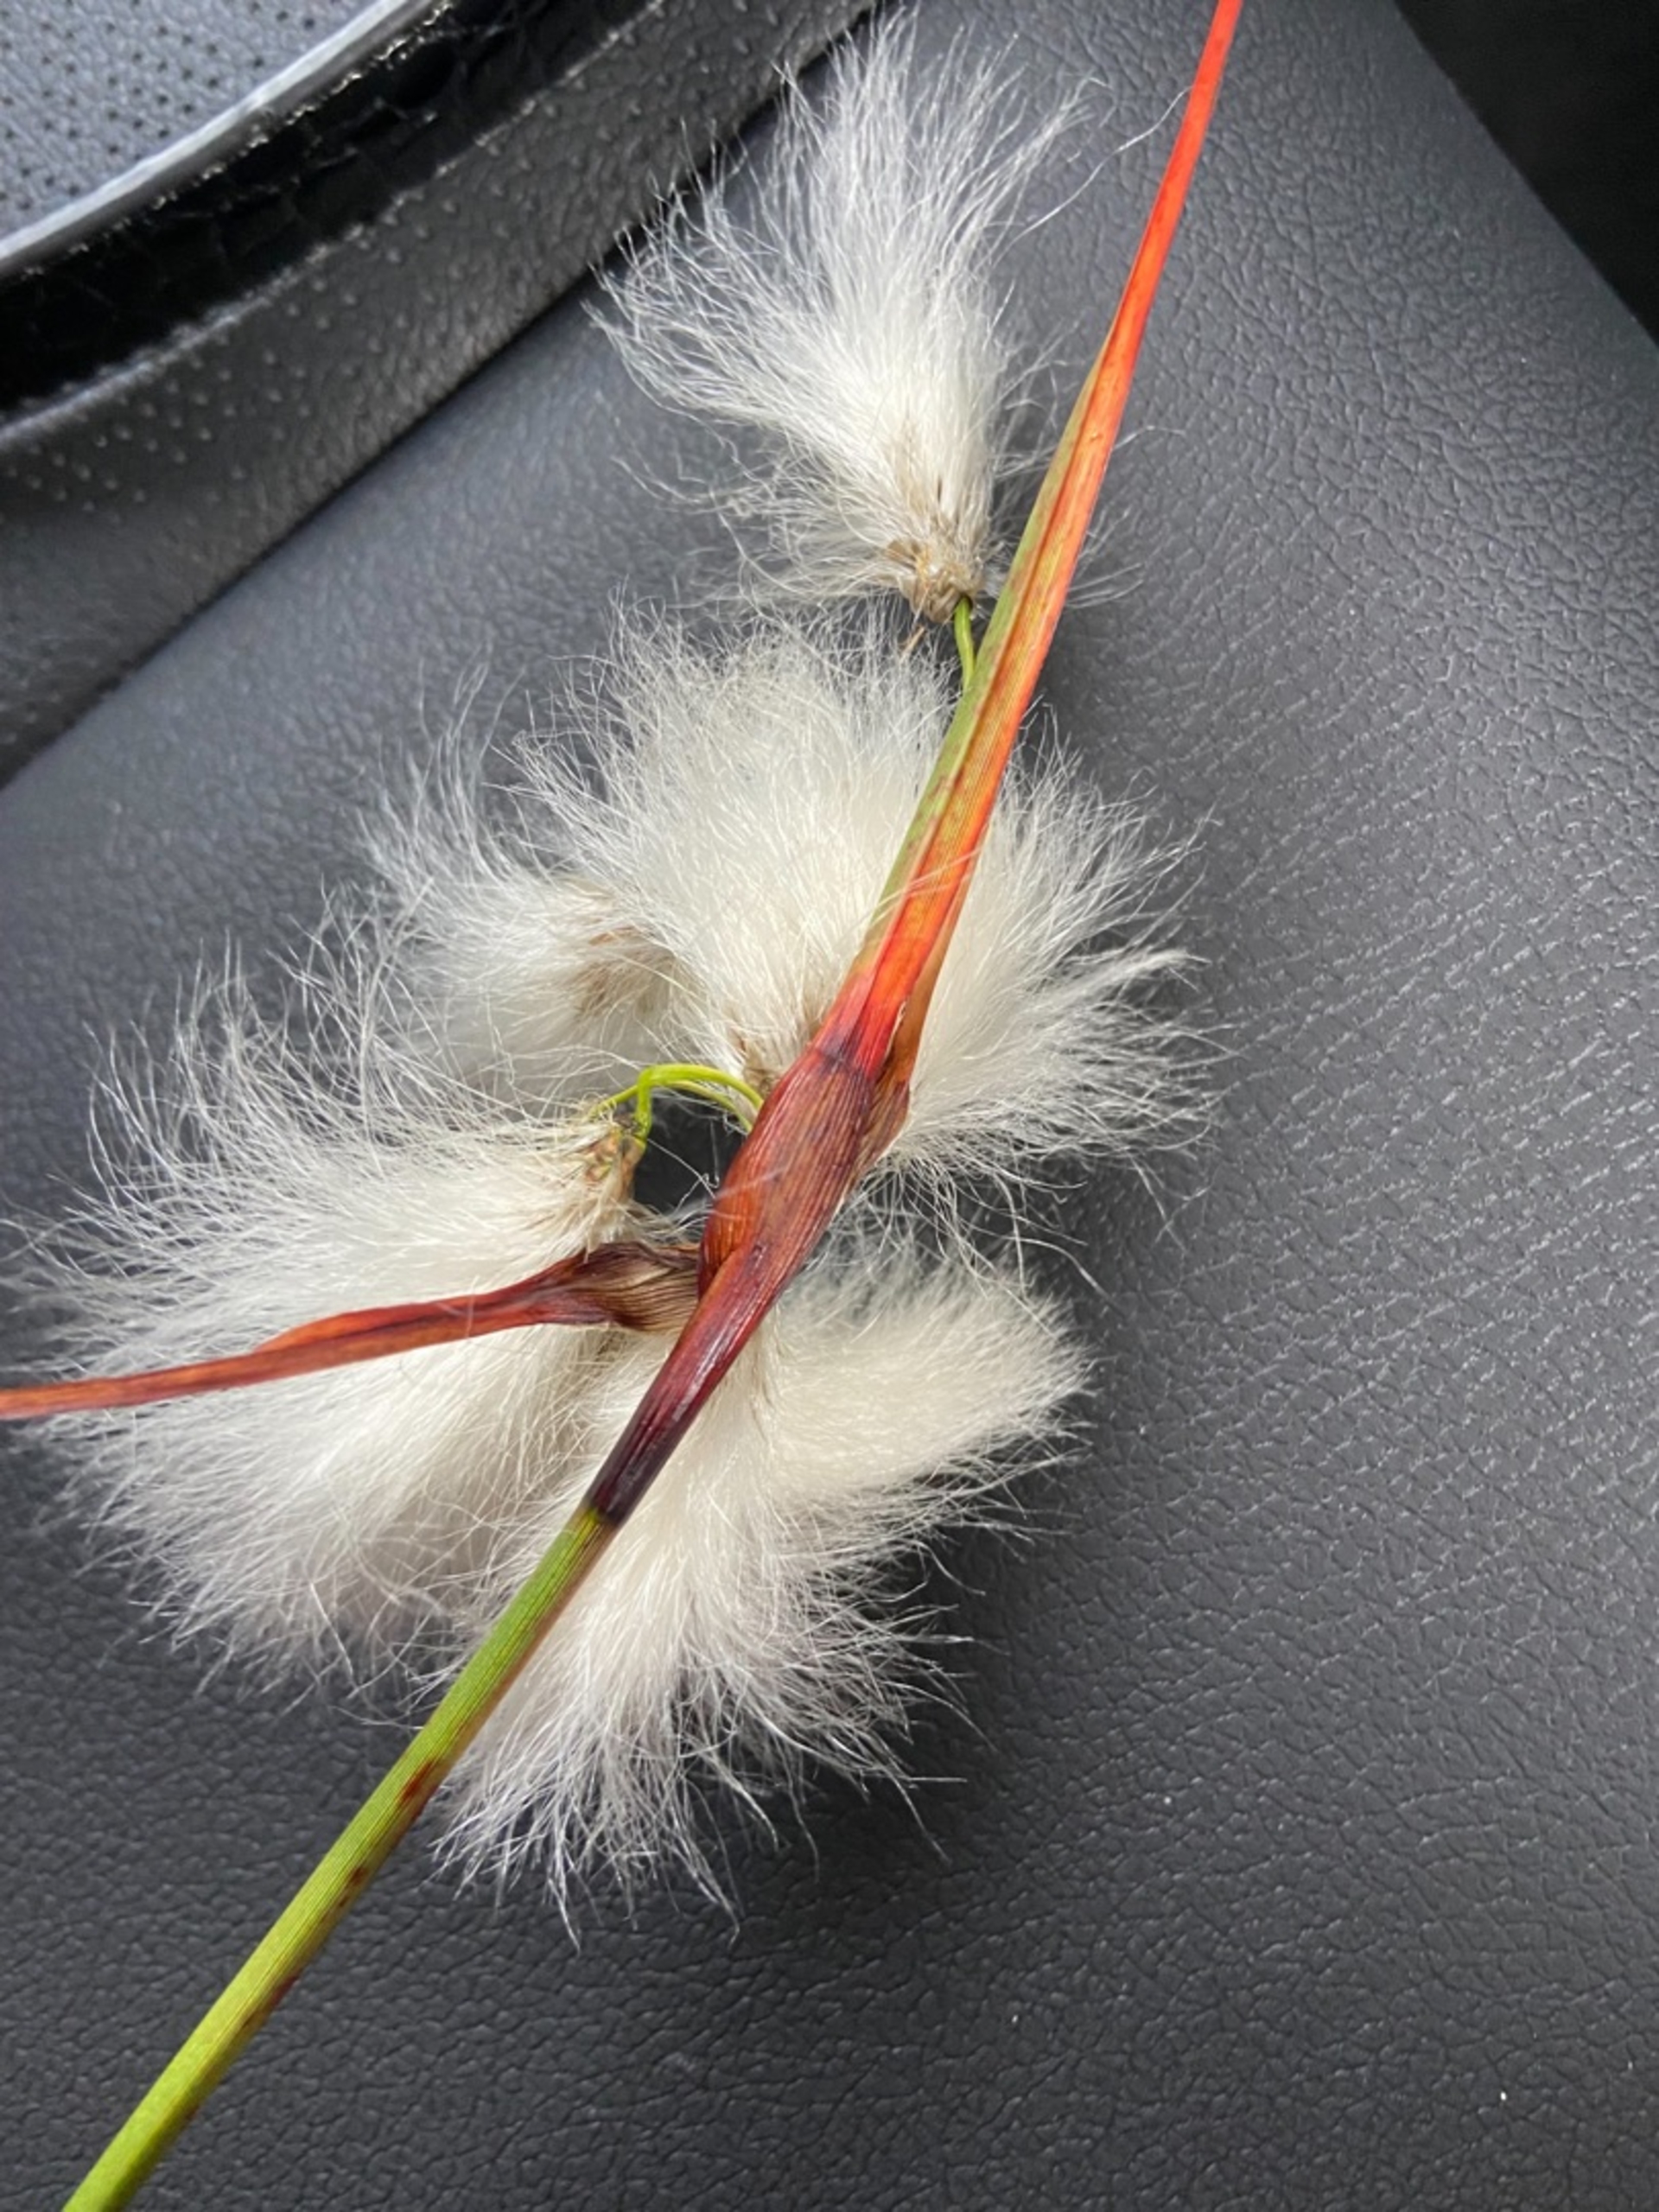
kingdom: Plantae
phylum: Tracheophyta
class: Liliopsida
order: Poales
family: Cyperaceae
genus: Eriophorum
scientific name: Eriophorum angustifolium
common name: Smalbladet kæruld
